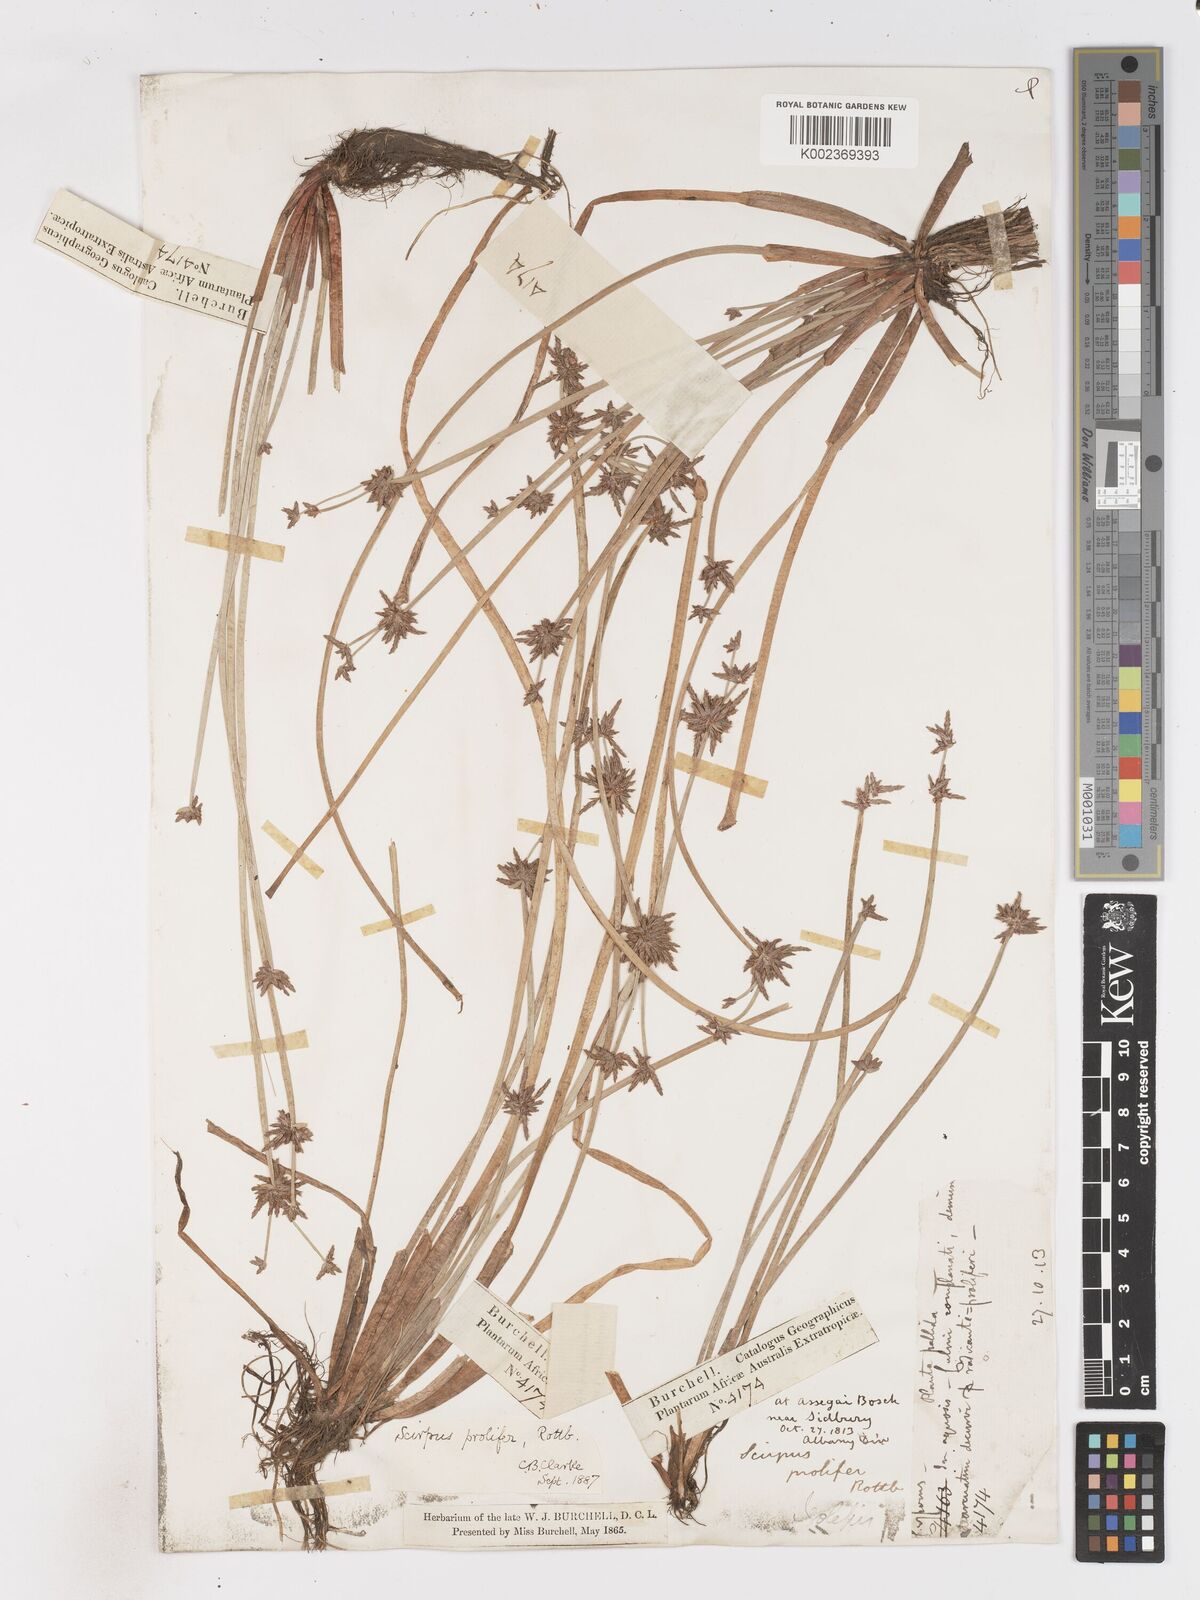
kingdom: Plantae
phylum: Tracheophyta
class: Liliopsida
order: Poales
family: Cyperaceae
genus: Isolepis
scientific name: Isolepis prolifera
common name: Proliferating bulrush
